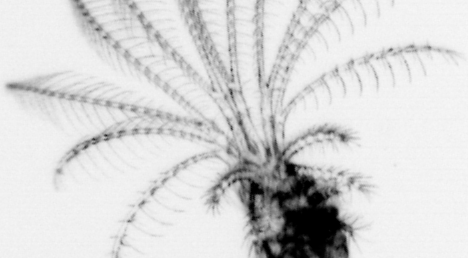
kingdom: Animalia
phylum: Arthropoda
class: Maxillopoda
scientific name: Maxillopoda
